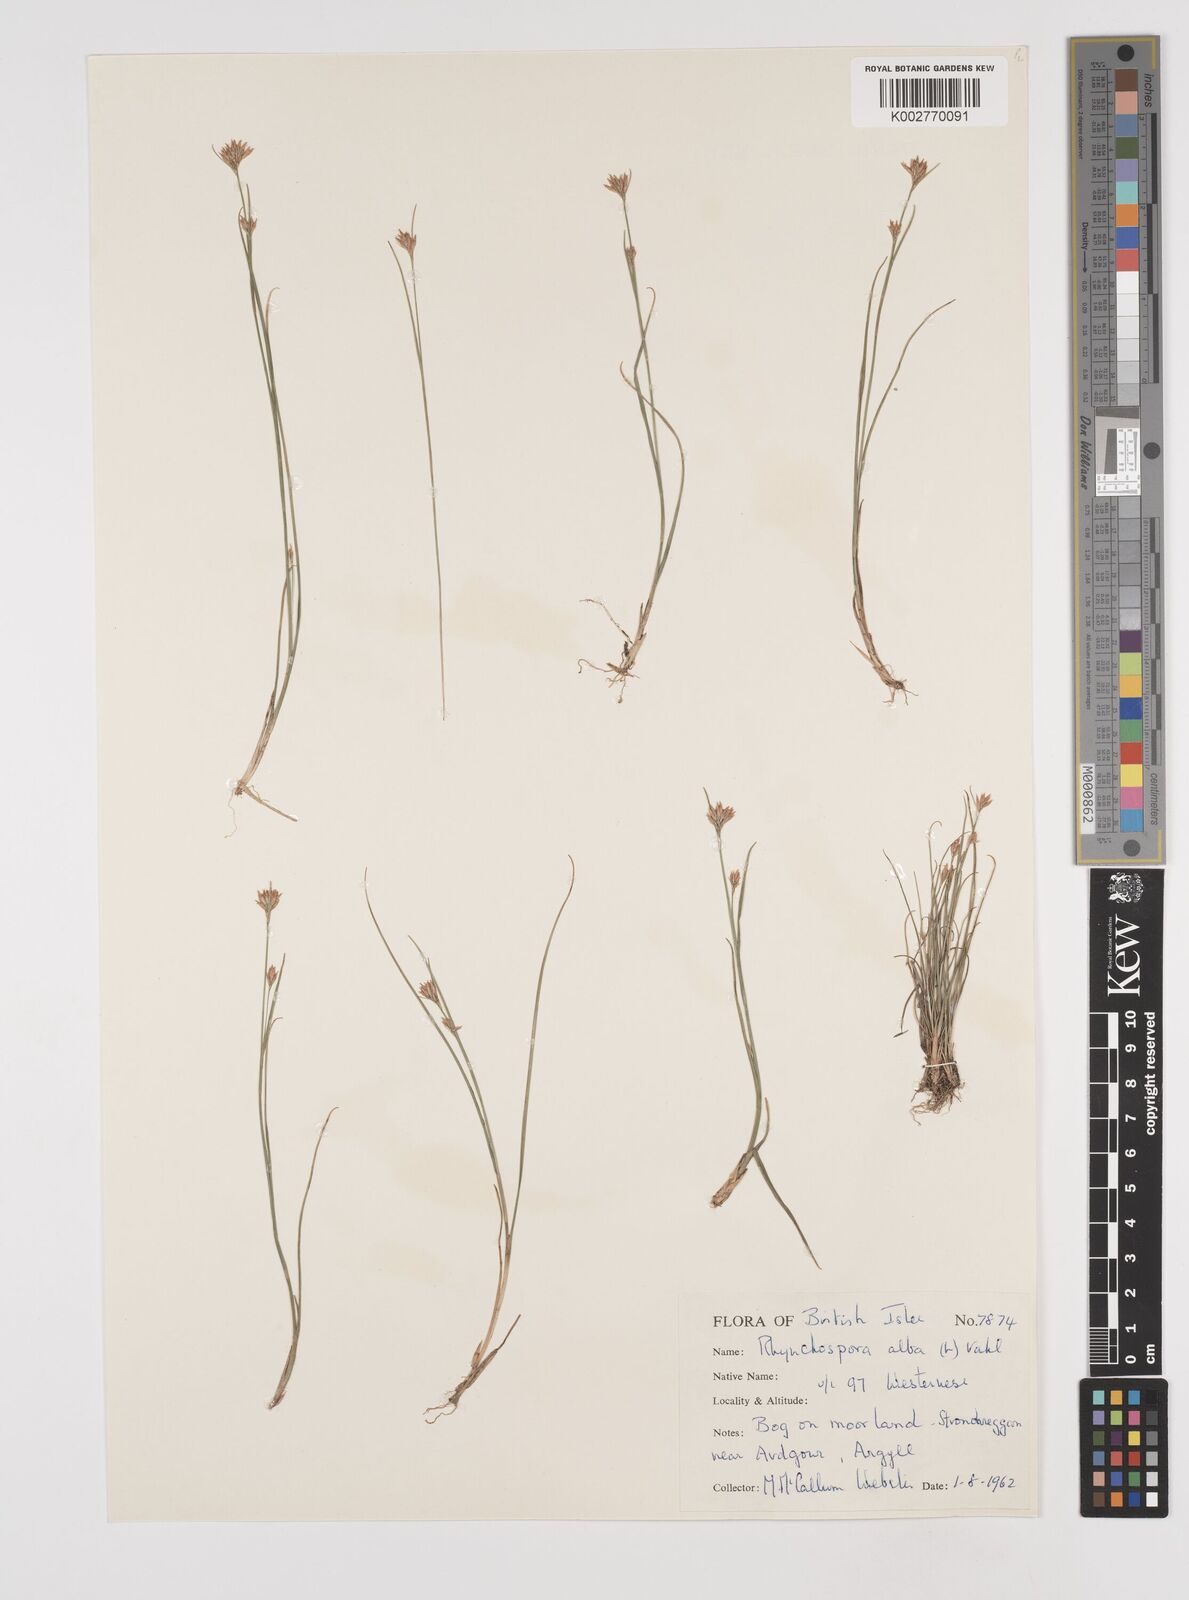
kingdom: Plantae
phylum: Tracheophyta
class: Liliopsida
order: Poales
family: Cyperaceae
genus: Rhynchospora
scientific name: Rhynchospora alba
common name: White beak-sedge
